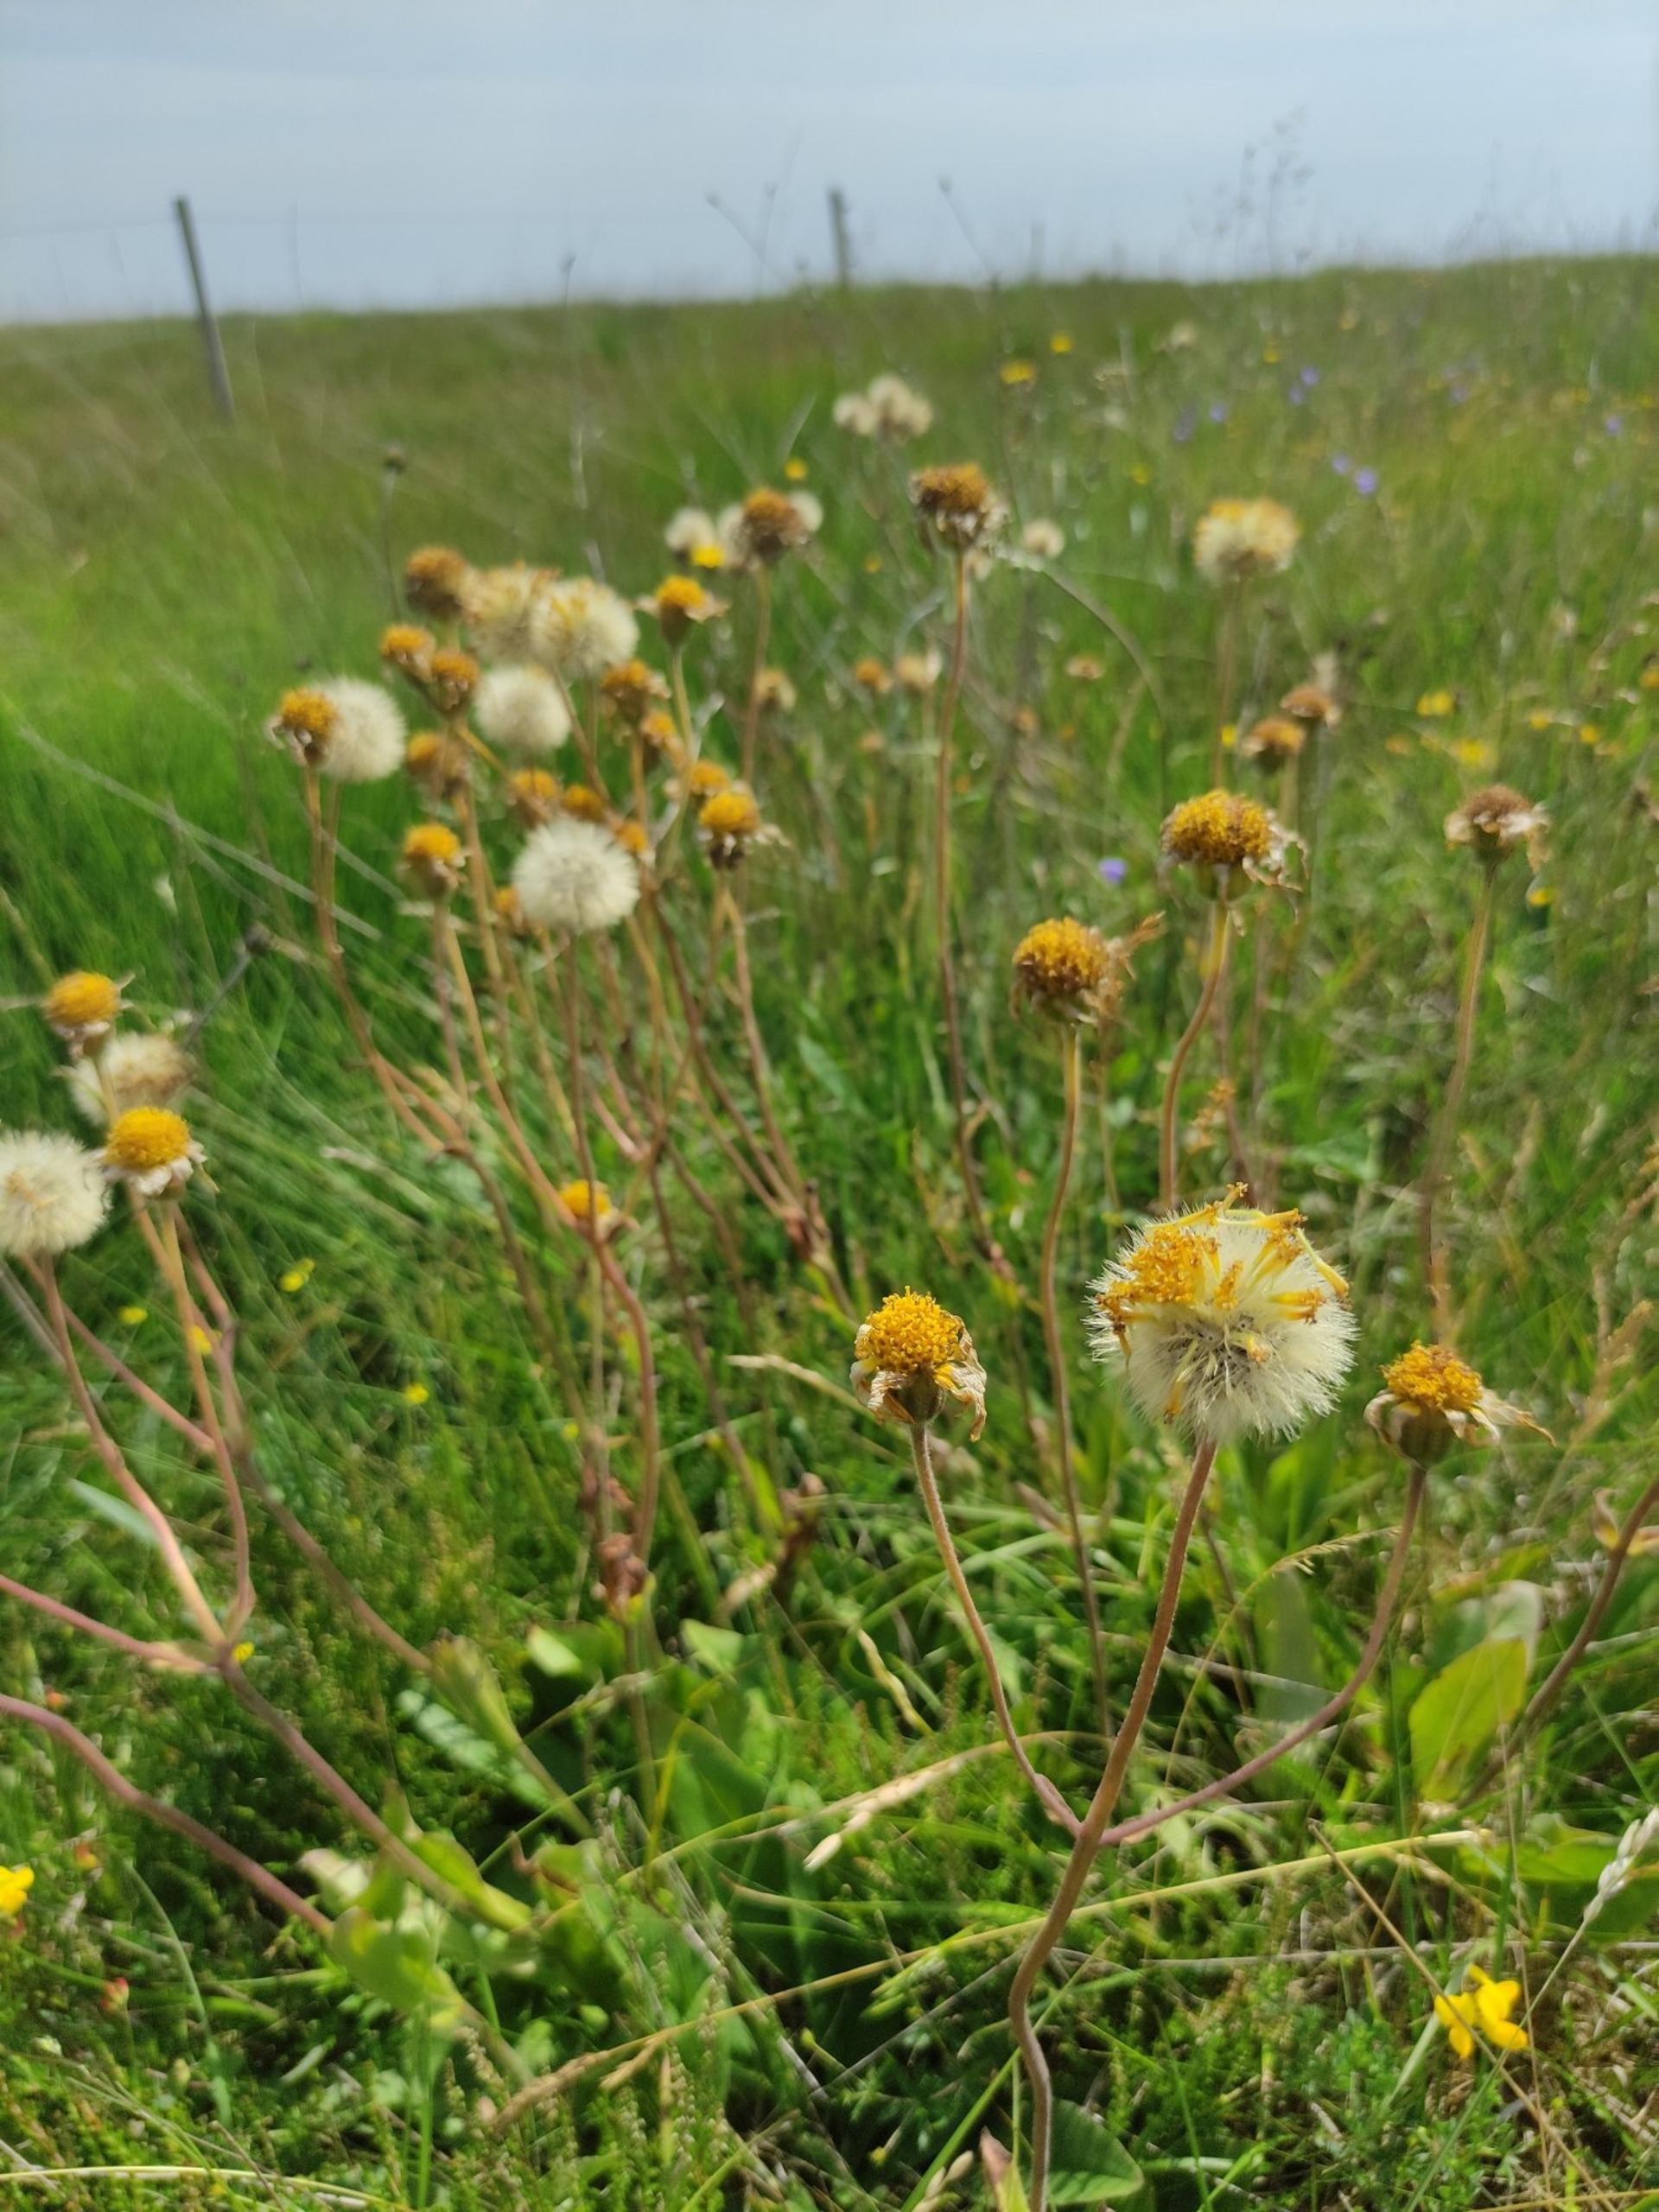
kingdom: Plantae
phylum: Tracheophyta
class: Magnoliopsida
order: Asterales
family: Asteraceae
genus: Arnica
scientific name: Arnica montana
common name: Guldblomme
